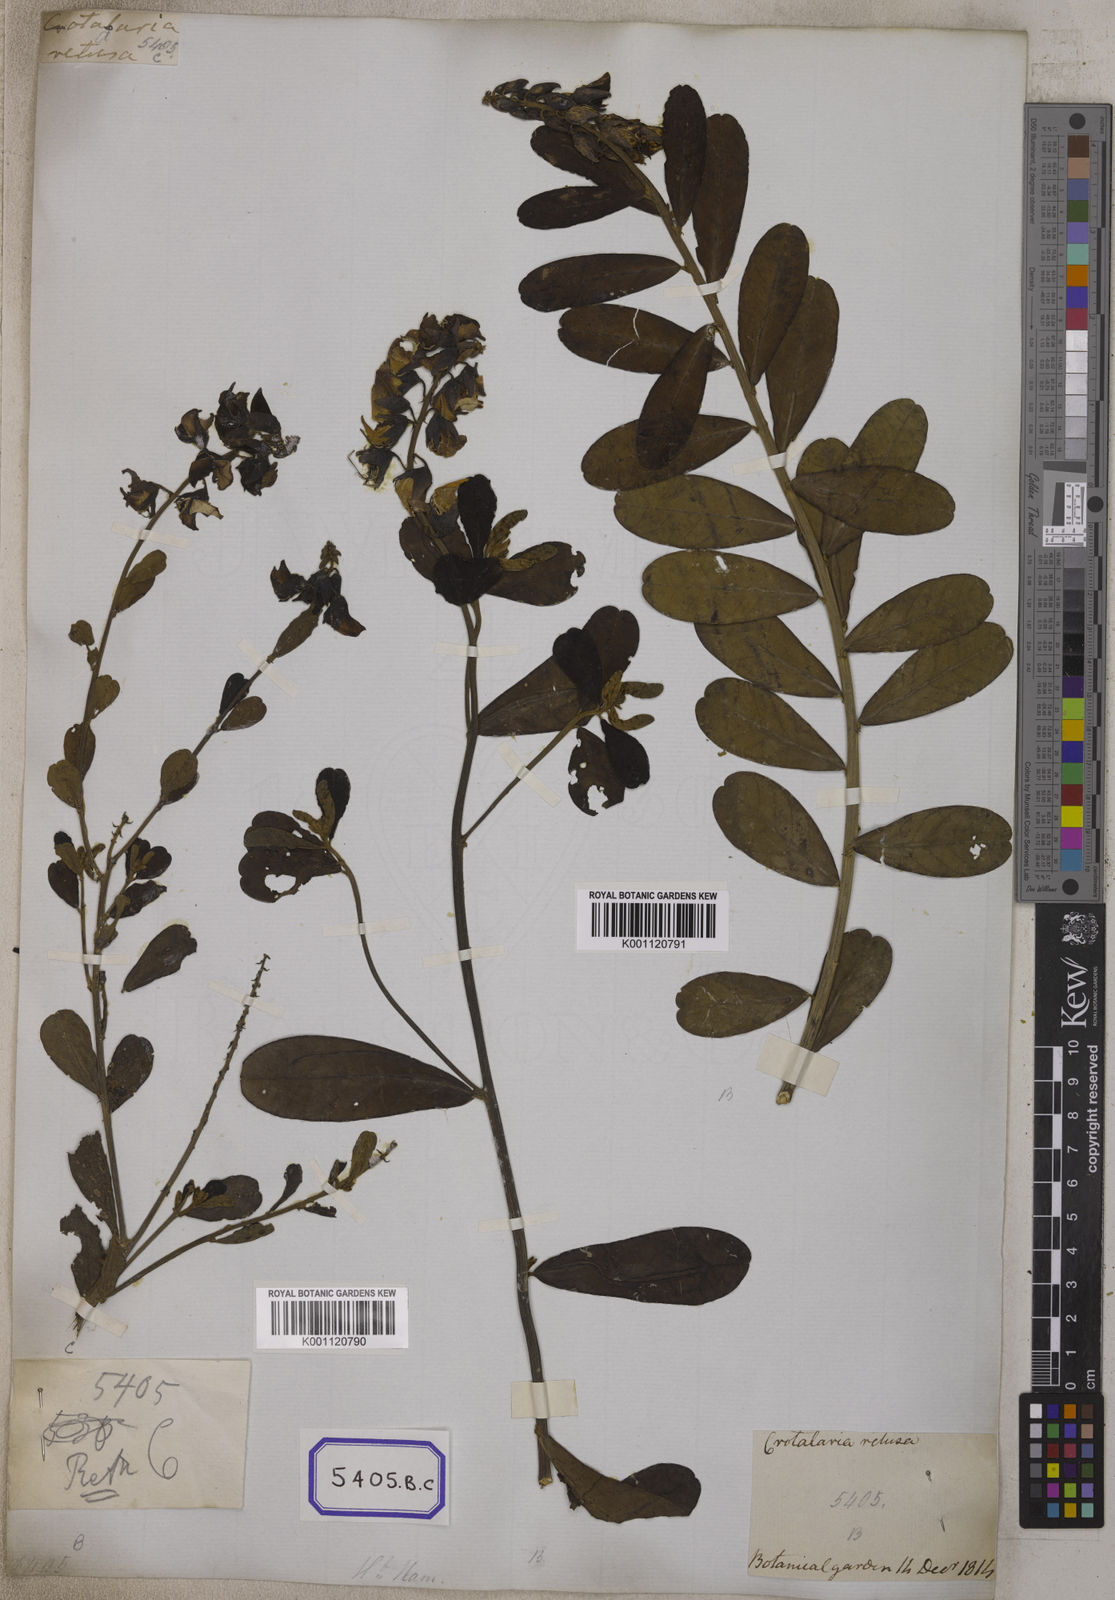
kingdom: Plantae
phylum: Tracheophyta
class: Magnoliopsida
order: Fabales
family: Fabaceae
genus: Crotalaria
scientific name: Crotalaria retusa
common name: Rattleweed
